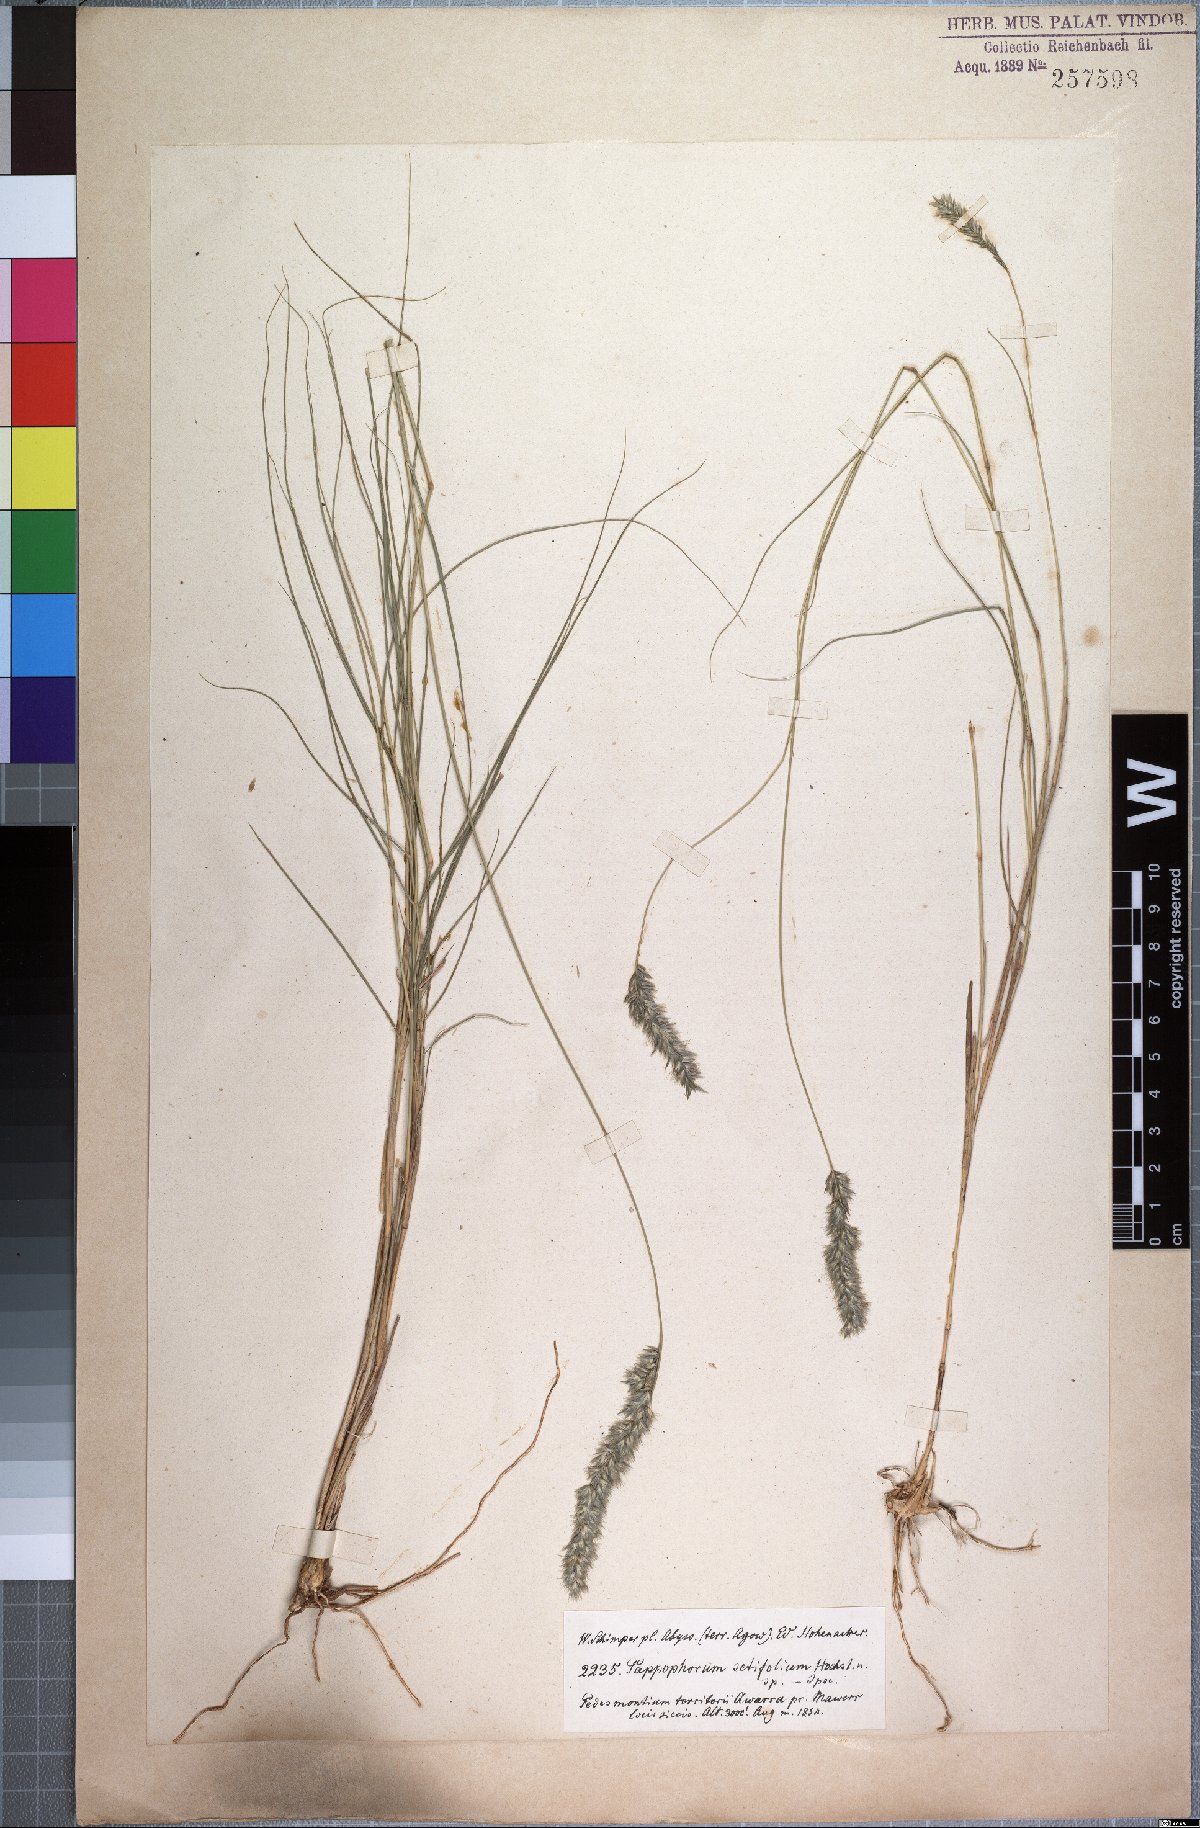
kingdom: Plantae
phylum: Tracheophyta
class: Liliopsida
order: Poales
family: Poaceae
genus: Enneapogon
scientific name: Enneapogon scoparius
